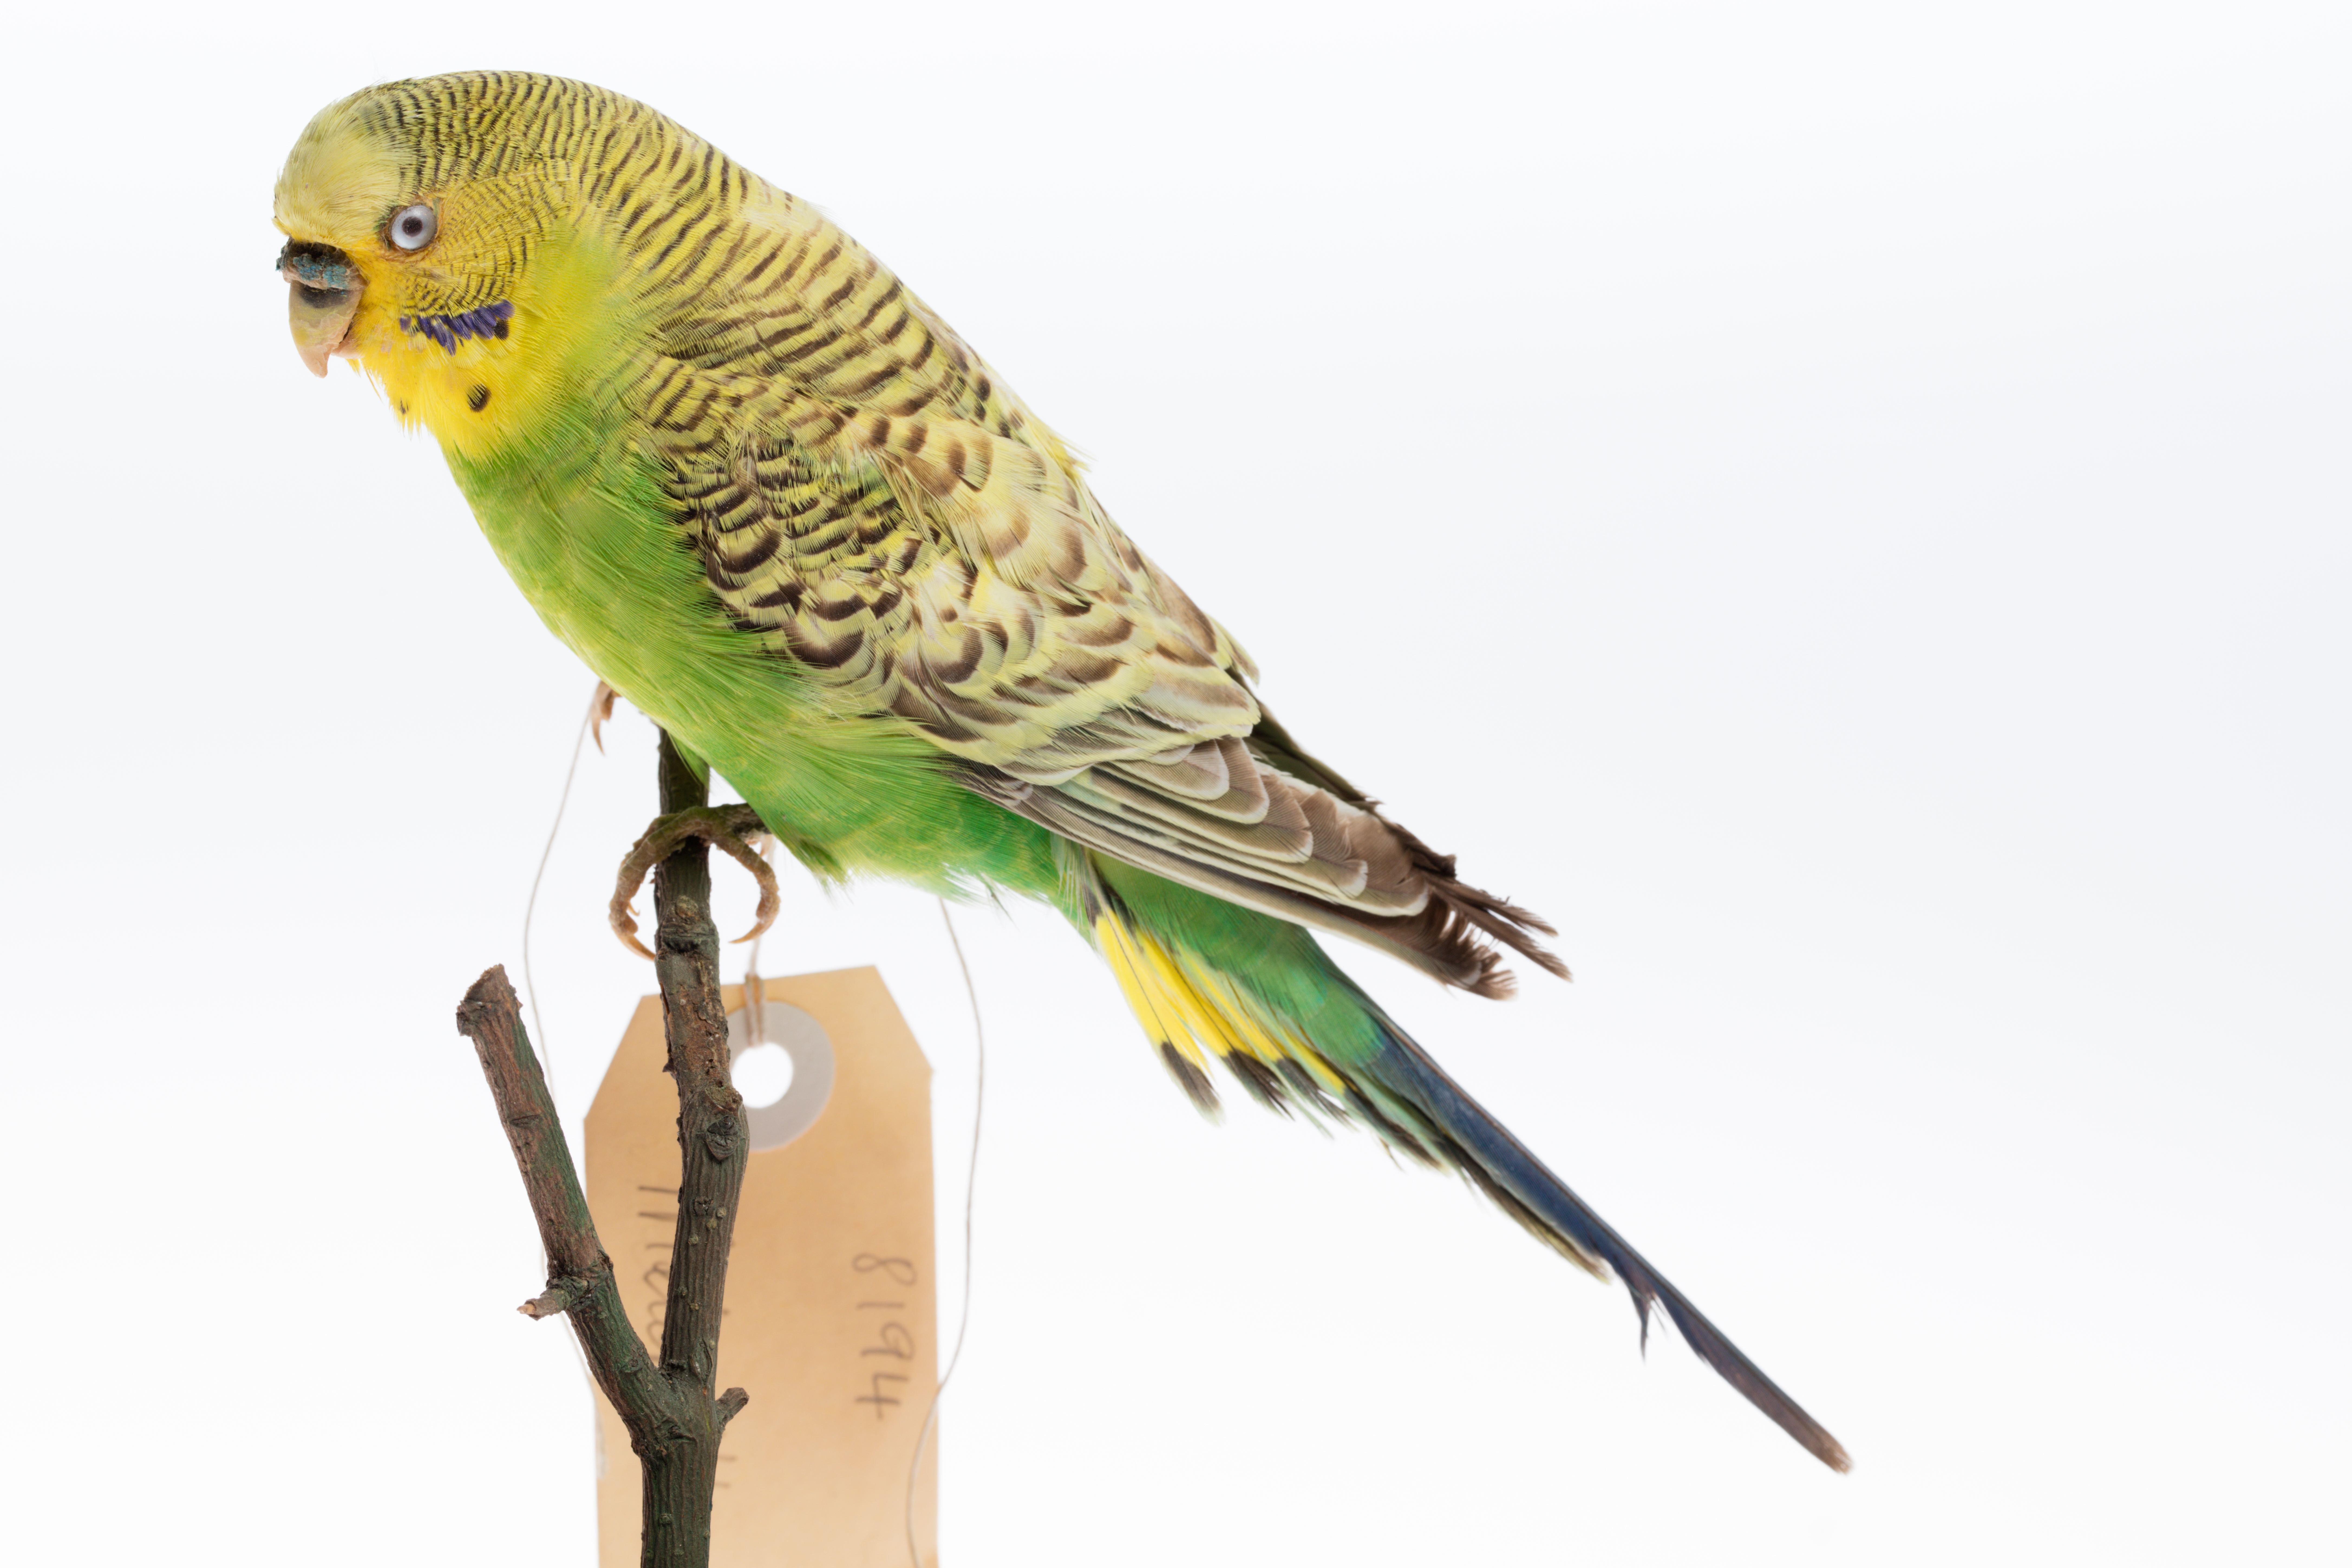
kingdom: Animalia
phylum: Chordata
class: Aves
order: Psittaciformes
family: Psittacidae
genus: Melopsittacus
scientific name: Melopsittacus undulatus
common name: Budgerigar
